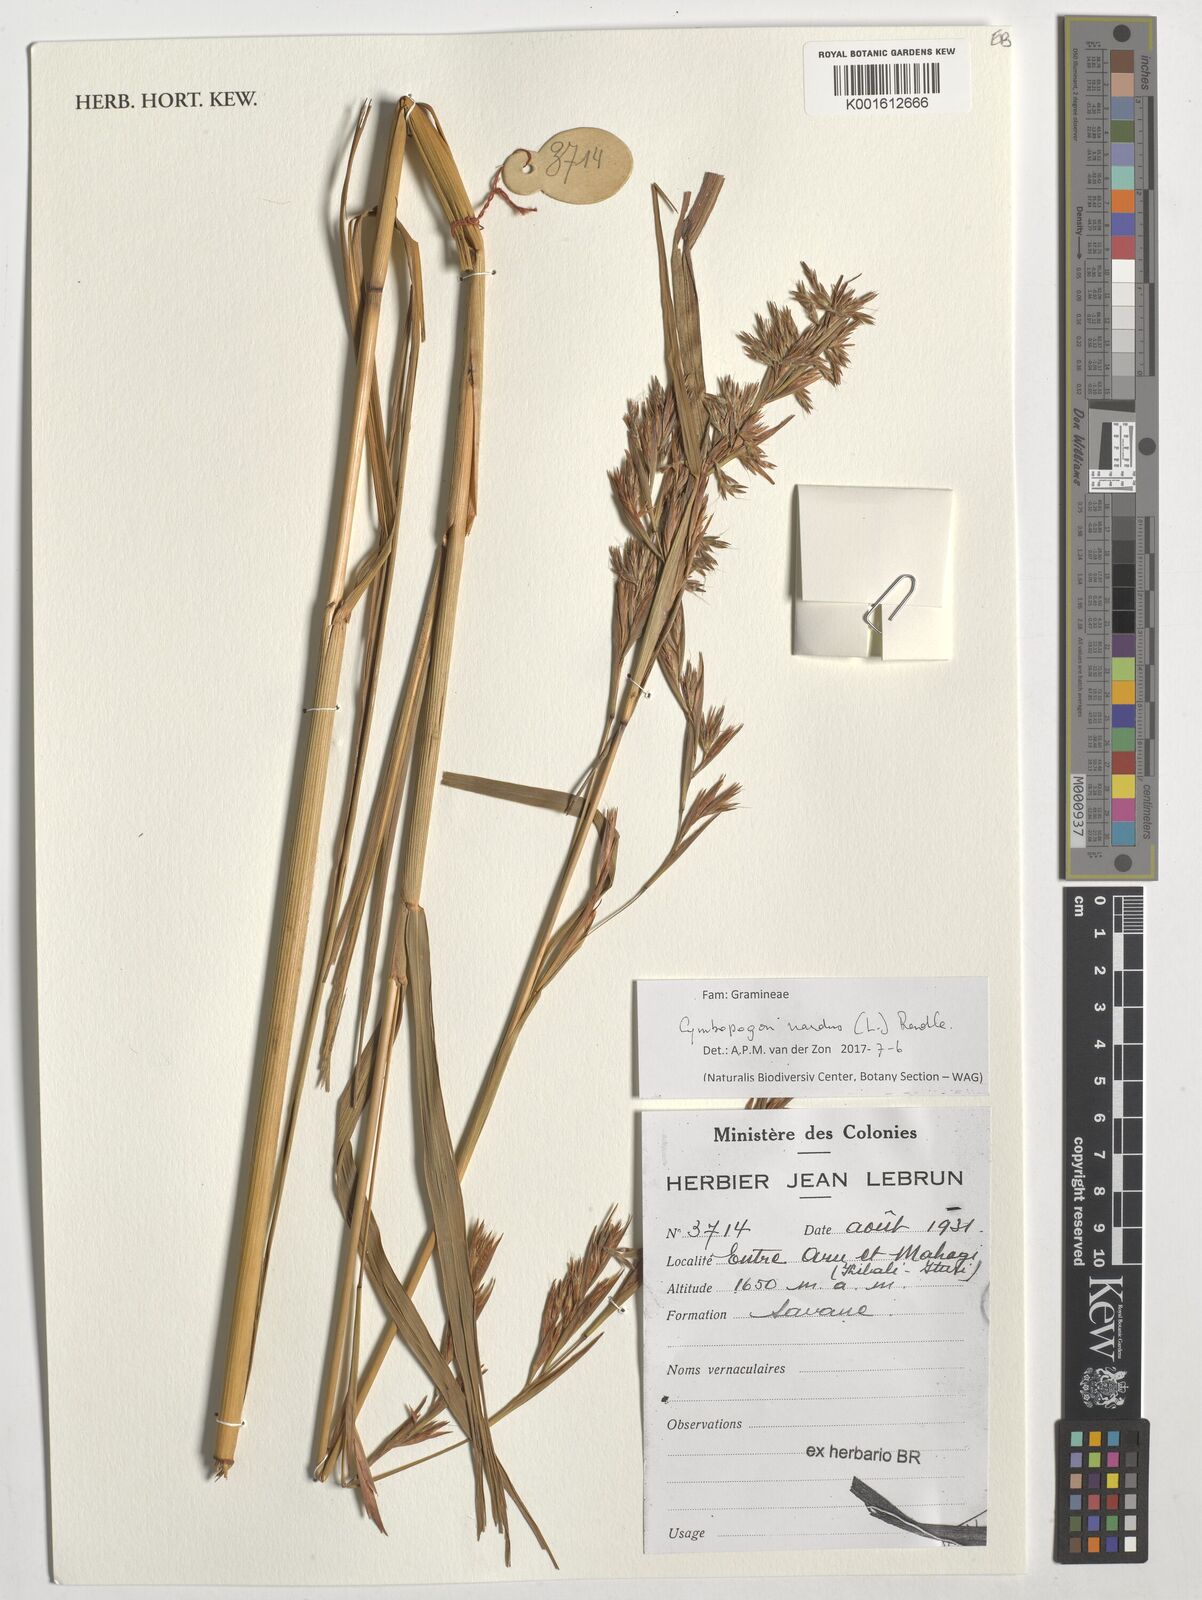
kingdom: Plantae
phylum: Tracheophyta
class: Liliopsida
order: Poales
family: Poaceae
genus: Cymbopogon
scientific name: Cymbopogon nardus
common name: Giant turpentine grass
